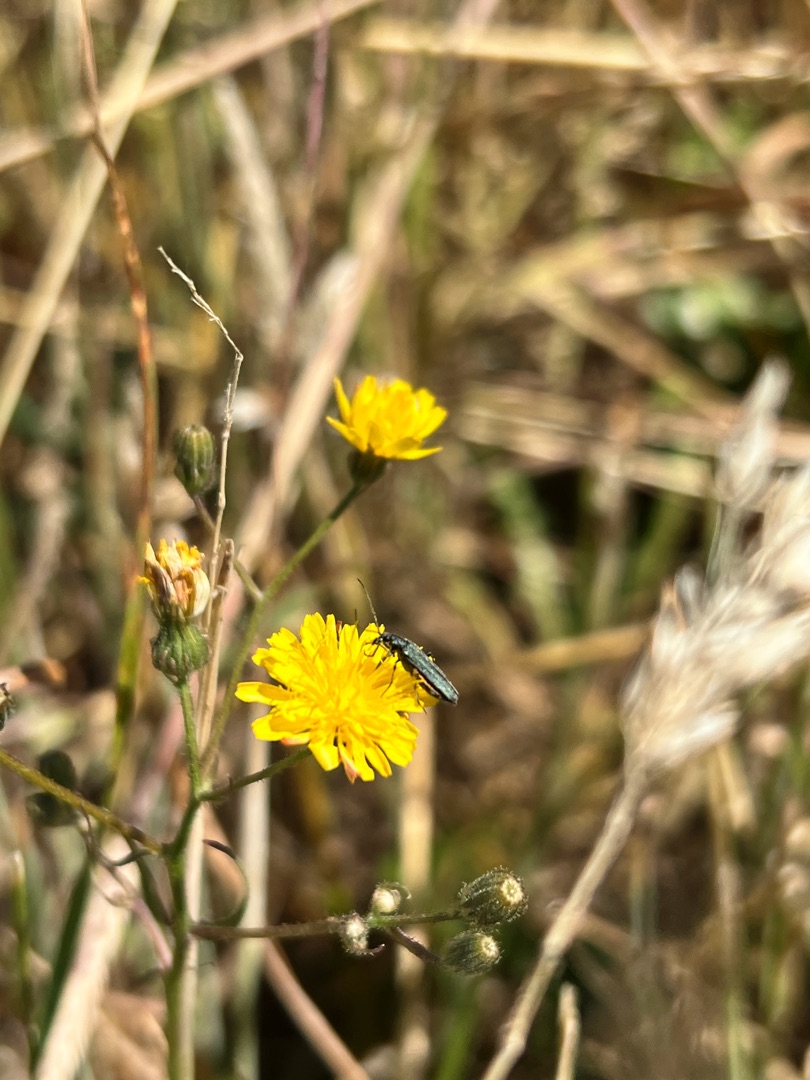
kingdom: Plantae
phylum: Tracheophyta
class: Magnoliopsida
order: Asterales
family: Asteraceae
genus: Crepis
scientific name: Crepis capillaris
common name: Grøn høgeskæg
